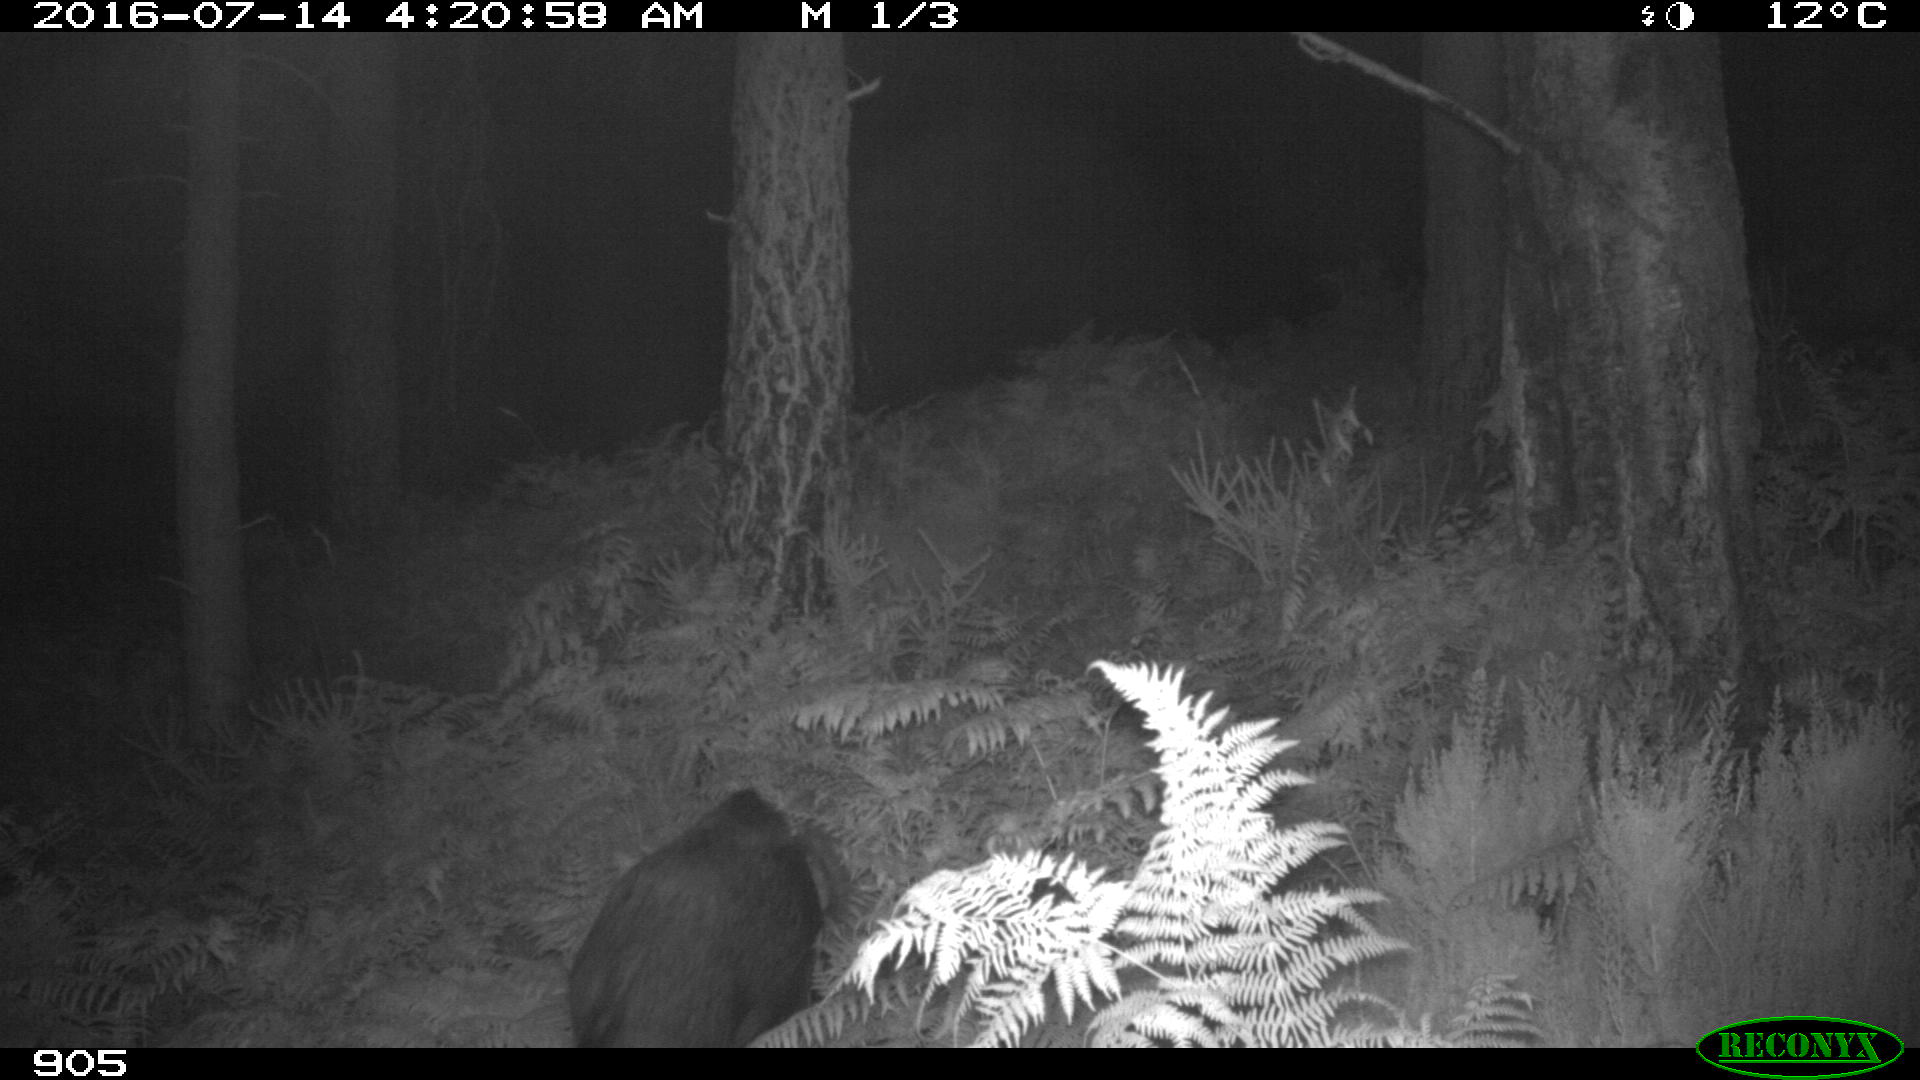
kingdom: Animalia
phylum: Chordata
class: Mammalia
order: Artiodactyla
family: Suidae
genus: Sus
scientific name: Sus scrofa
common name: Wild boar
